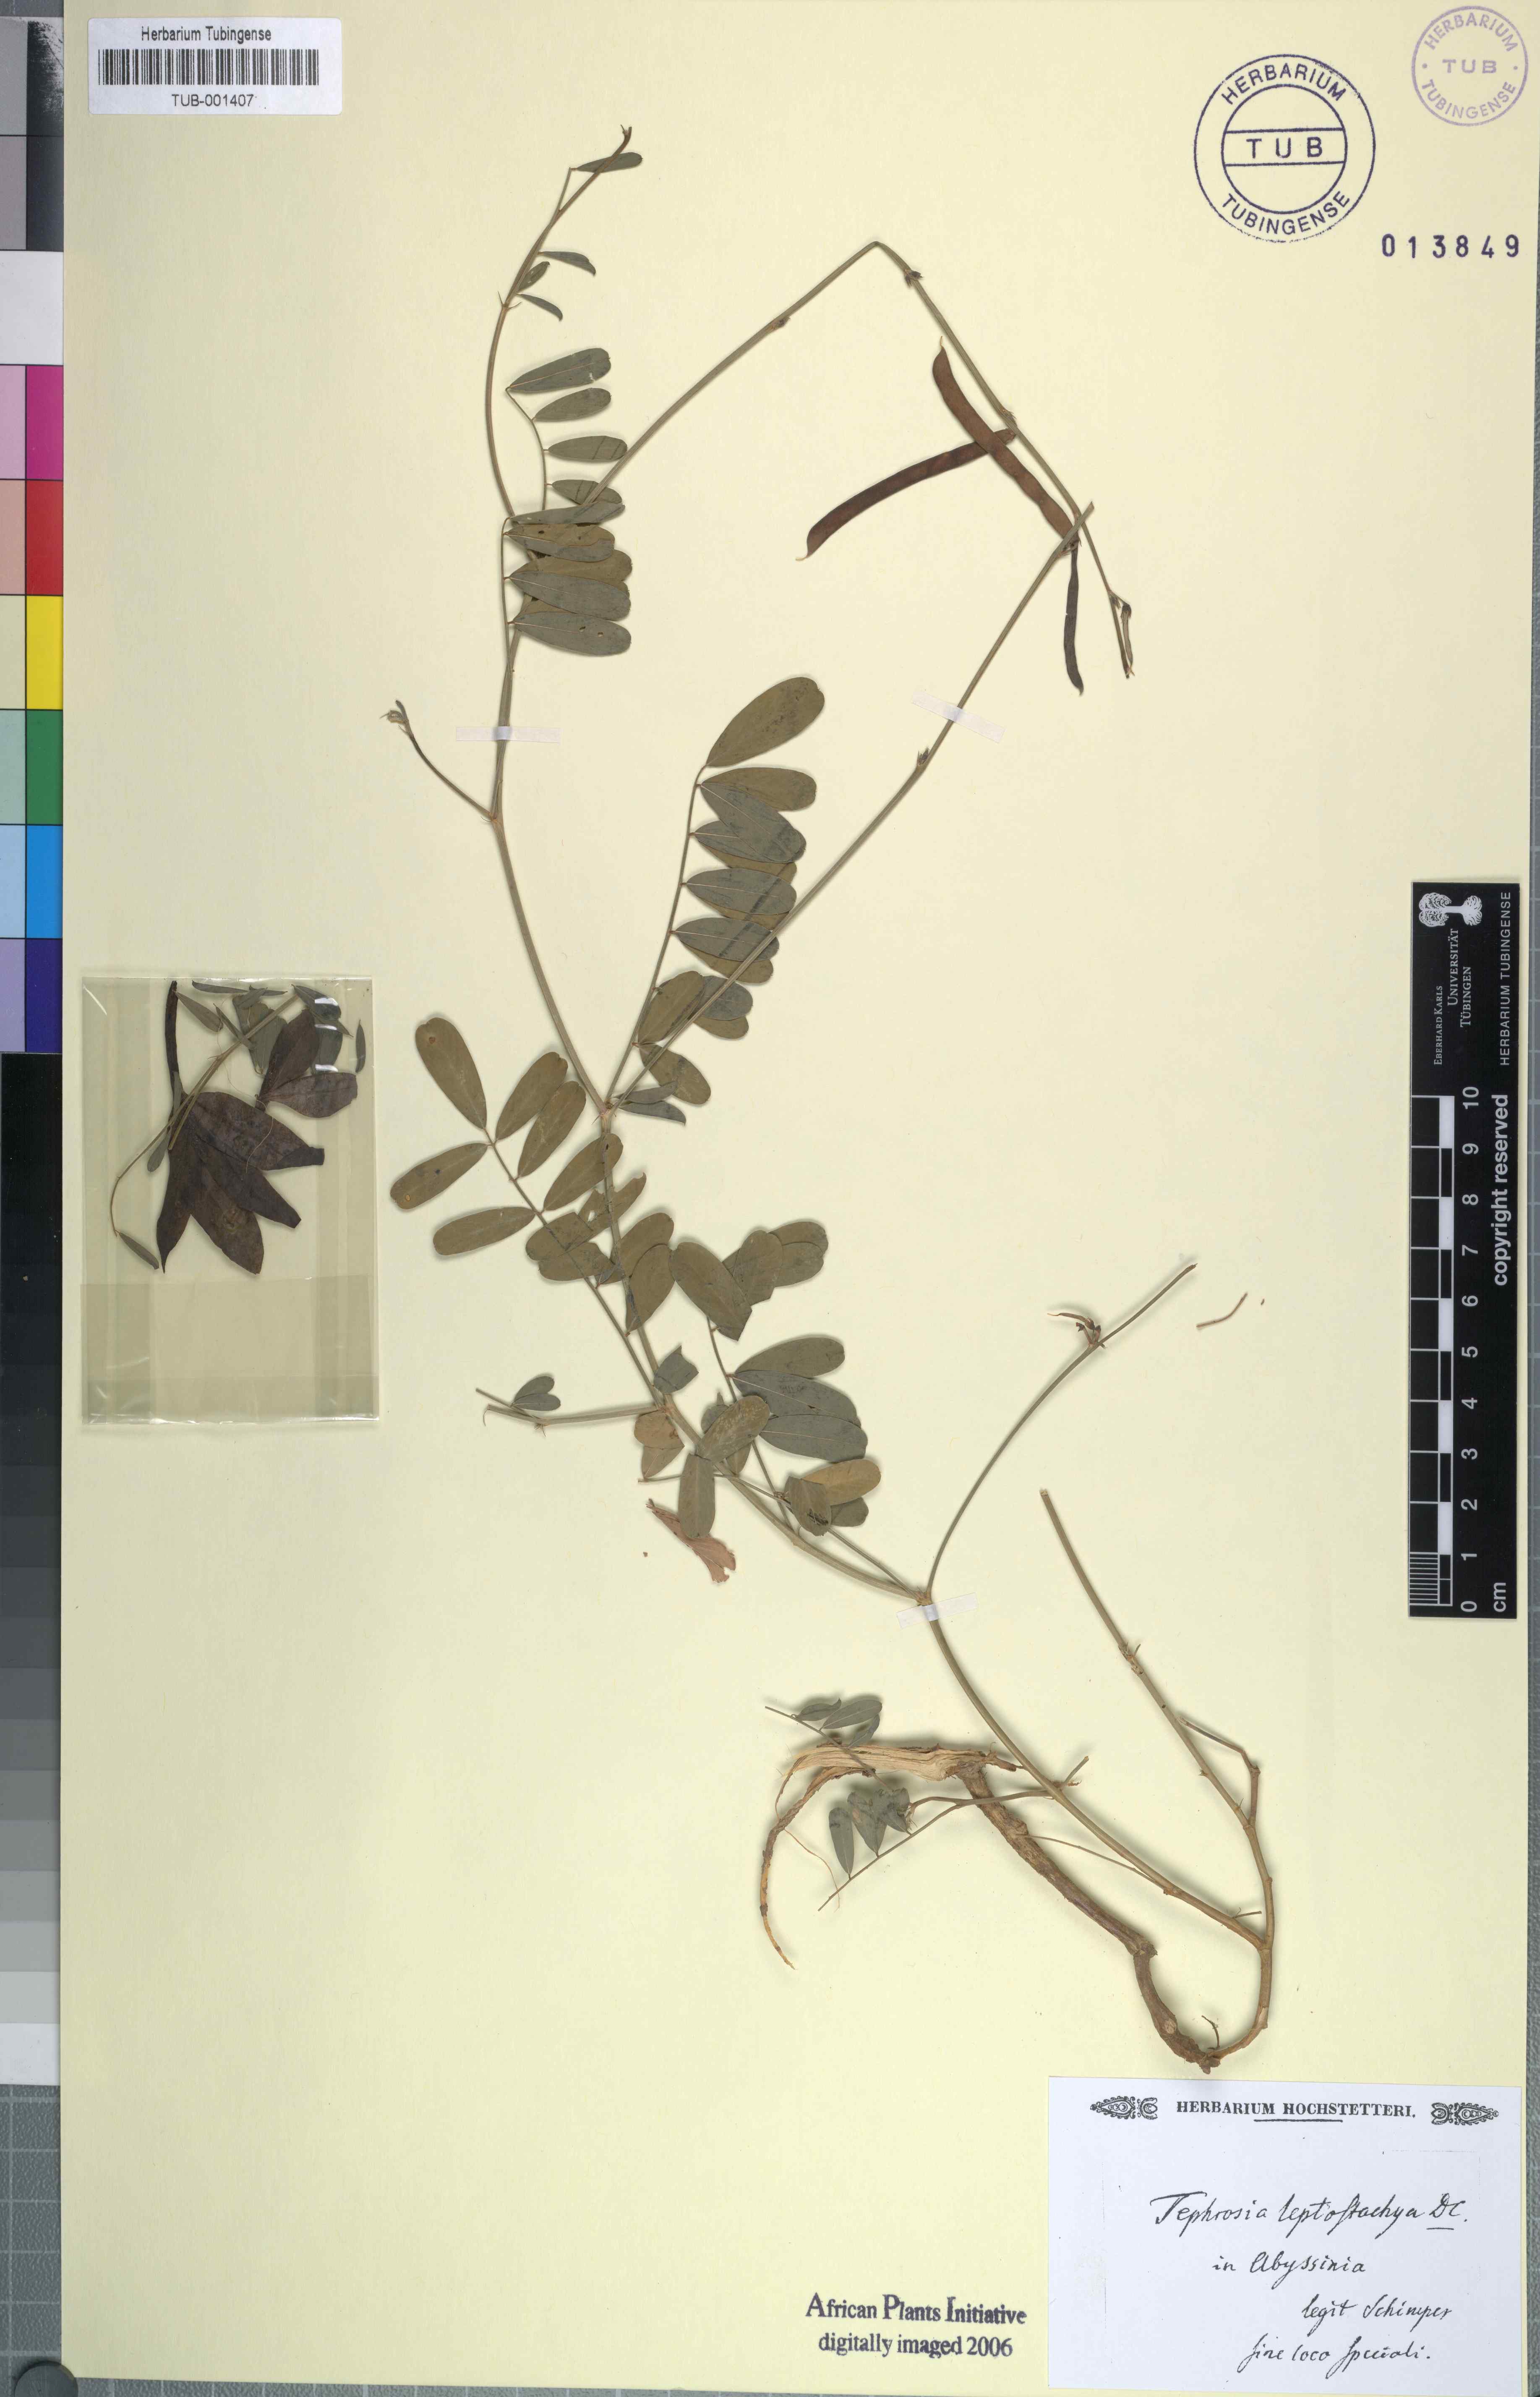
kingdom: Plantae
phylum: Tracheophyta
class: Magnoliopsida
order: Fabales
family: Fabaceae
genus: Tephrosia
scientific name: Tephrosia purpurea
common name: Fishpoison
